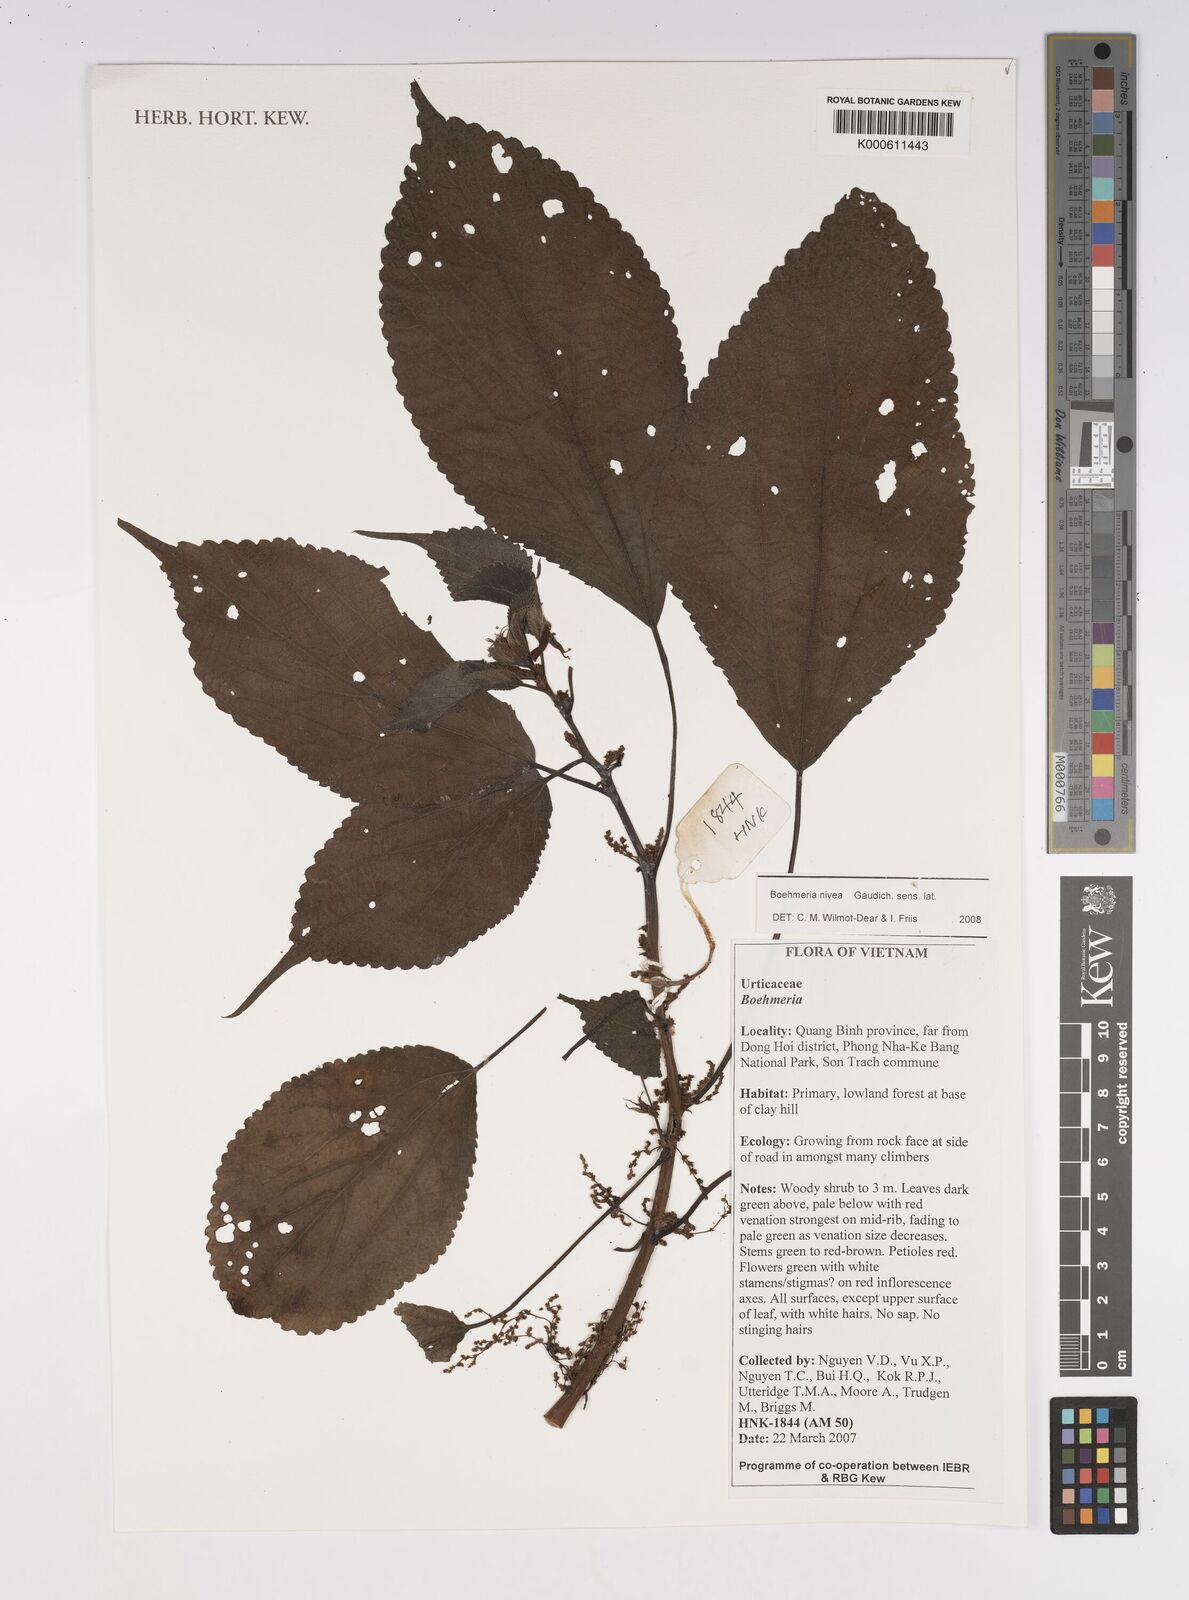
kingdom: Plantae
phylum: Tracheophyta
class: Magnoliopsida
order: Rosales
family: Urticaceae
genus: Boehmeria
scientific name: Boehmeria nivea
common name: Ramie chinese grass
